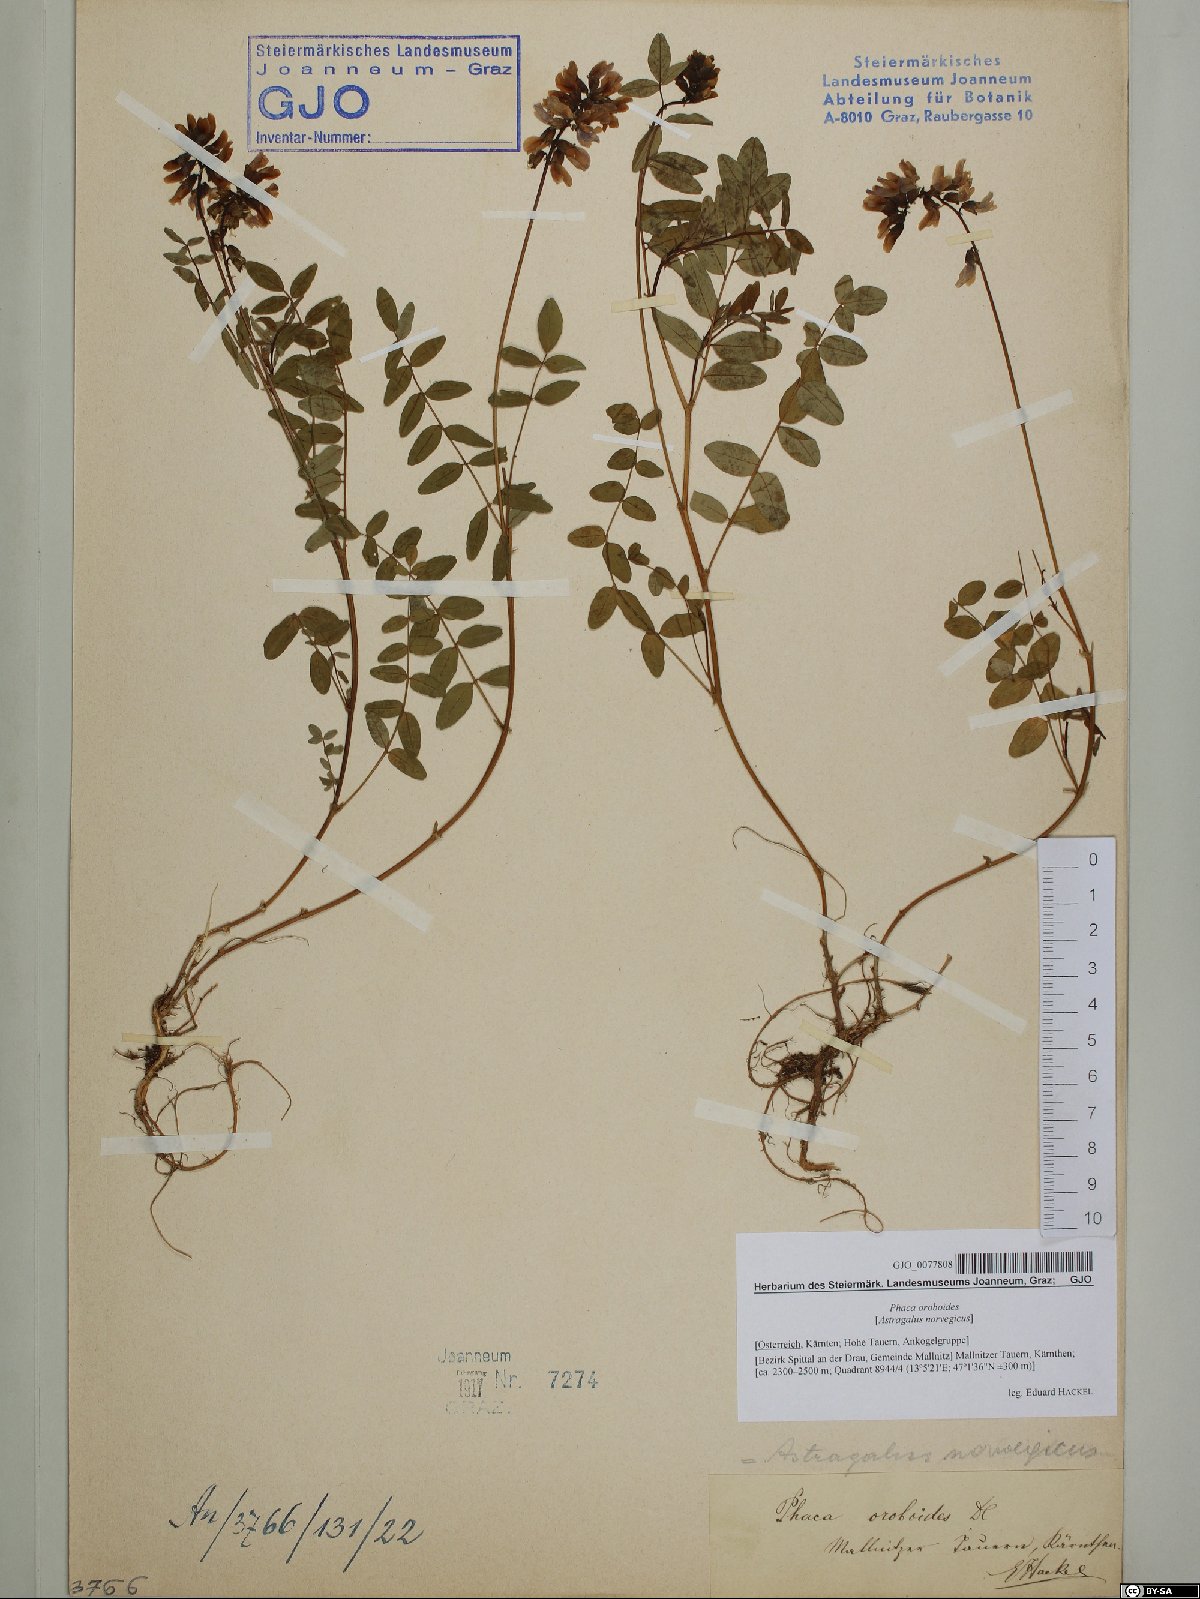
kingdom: Plantae
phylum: Tracheophyta
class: Magnoliopsida
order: Fabales
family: Fabaceae
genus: Astragalus
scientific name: Astragalus norvegicus
